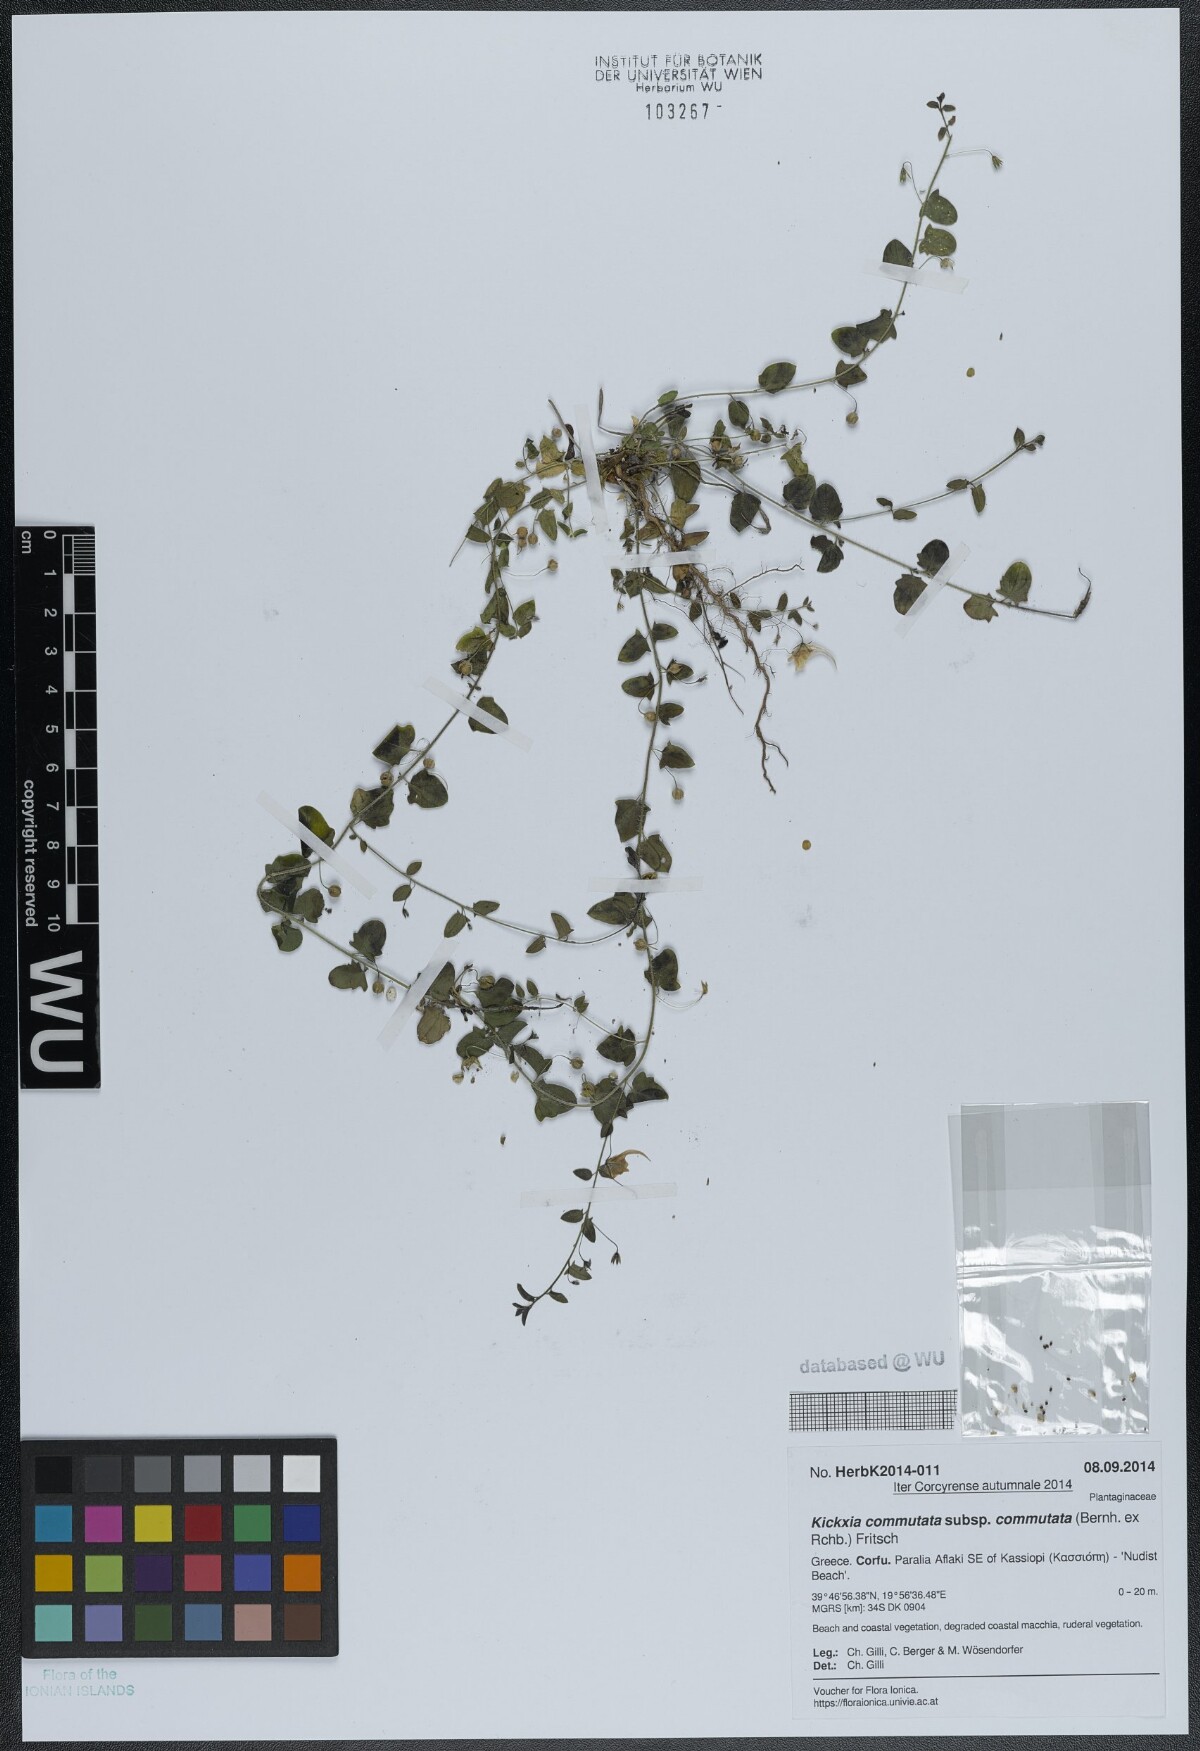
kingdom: Plantae
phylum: Tracheophyta
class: Magnoliopsida
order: Lamiales
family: Plantaginaceae
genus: Kickxia
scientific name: Kickxia commutata
